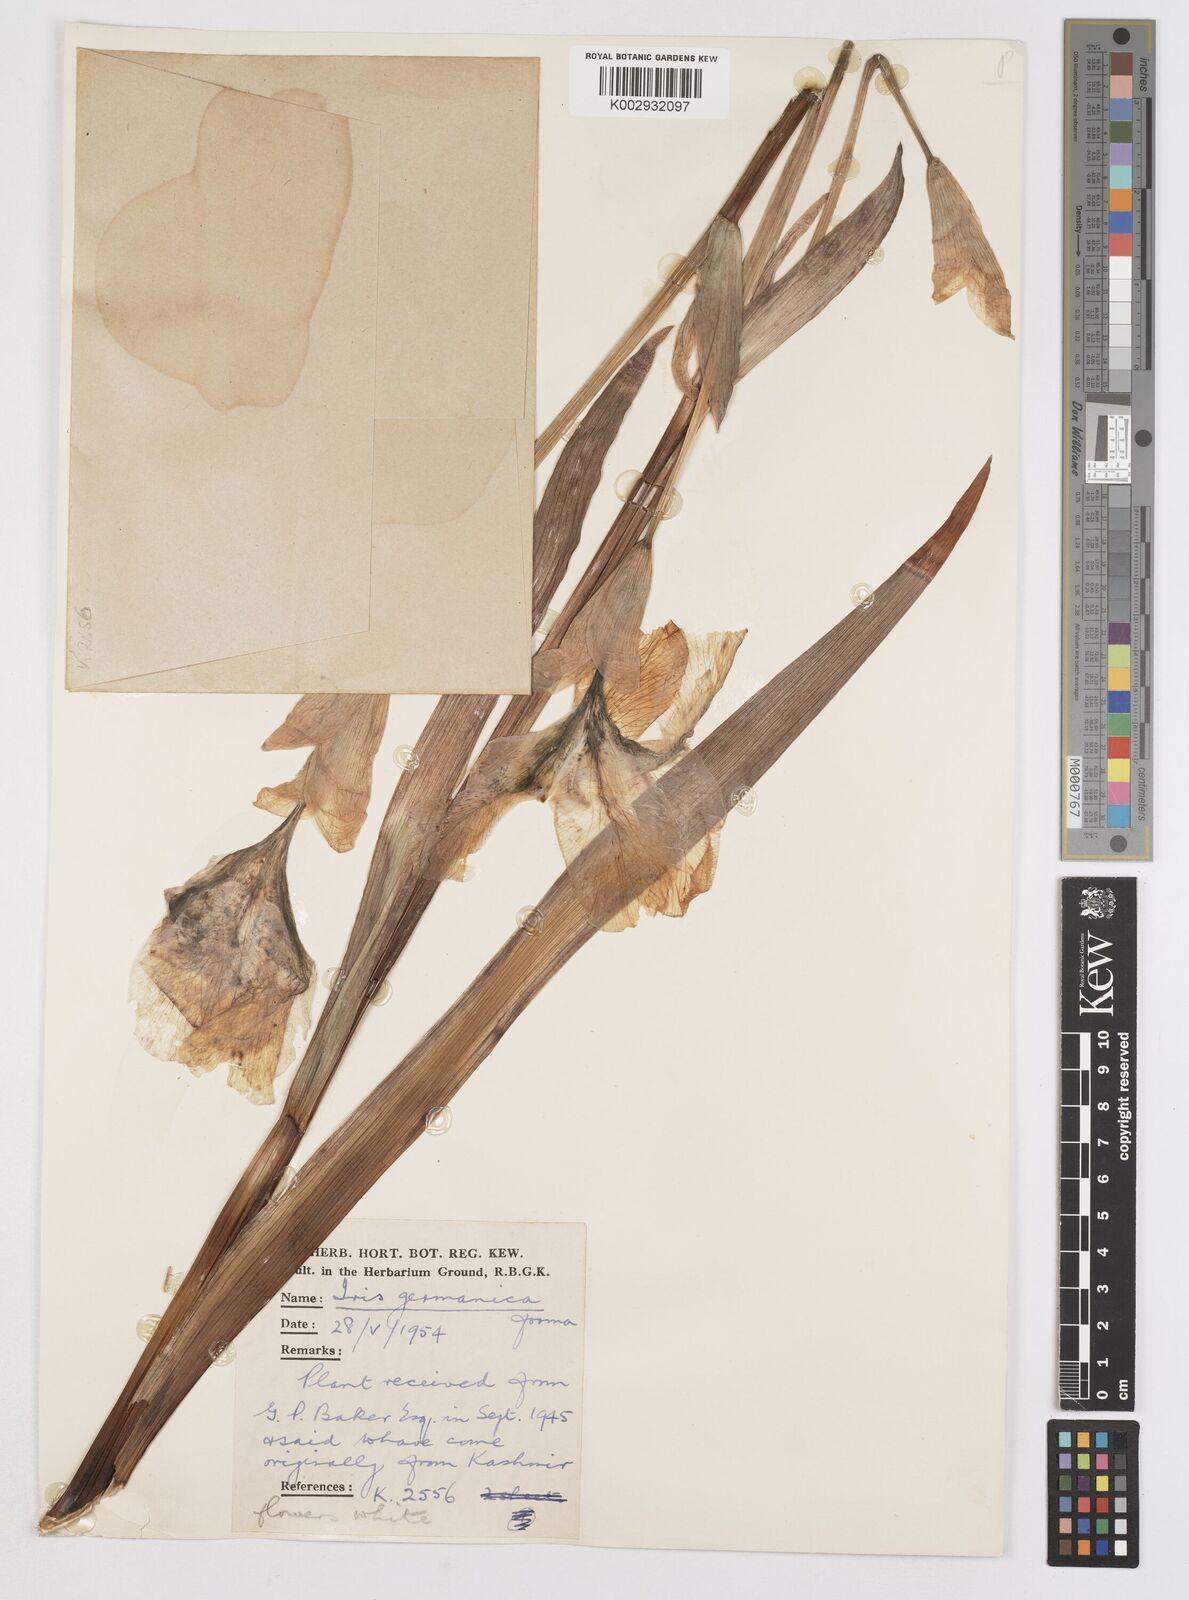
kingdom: Plantae
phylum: Tracheophyta
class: Liliopsida
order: Asparagales
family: Iridaceae
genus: Iris
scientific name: Iris kashmiriana
